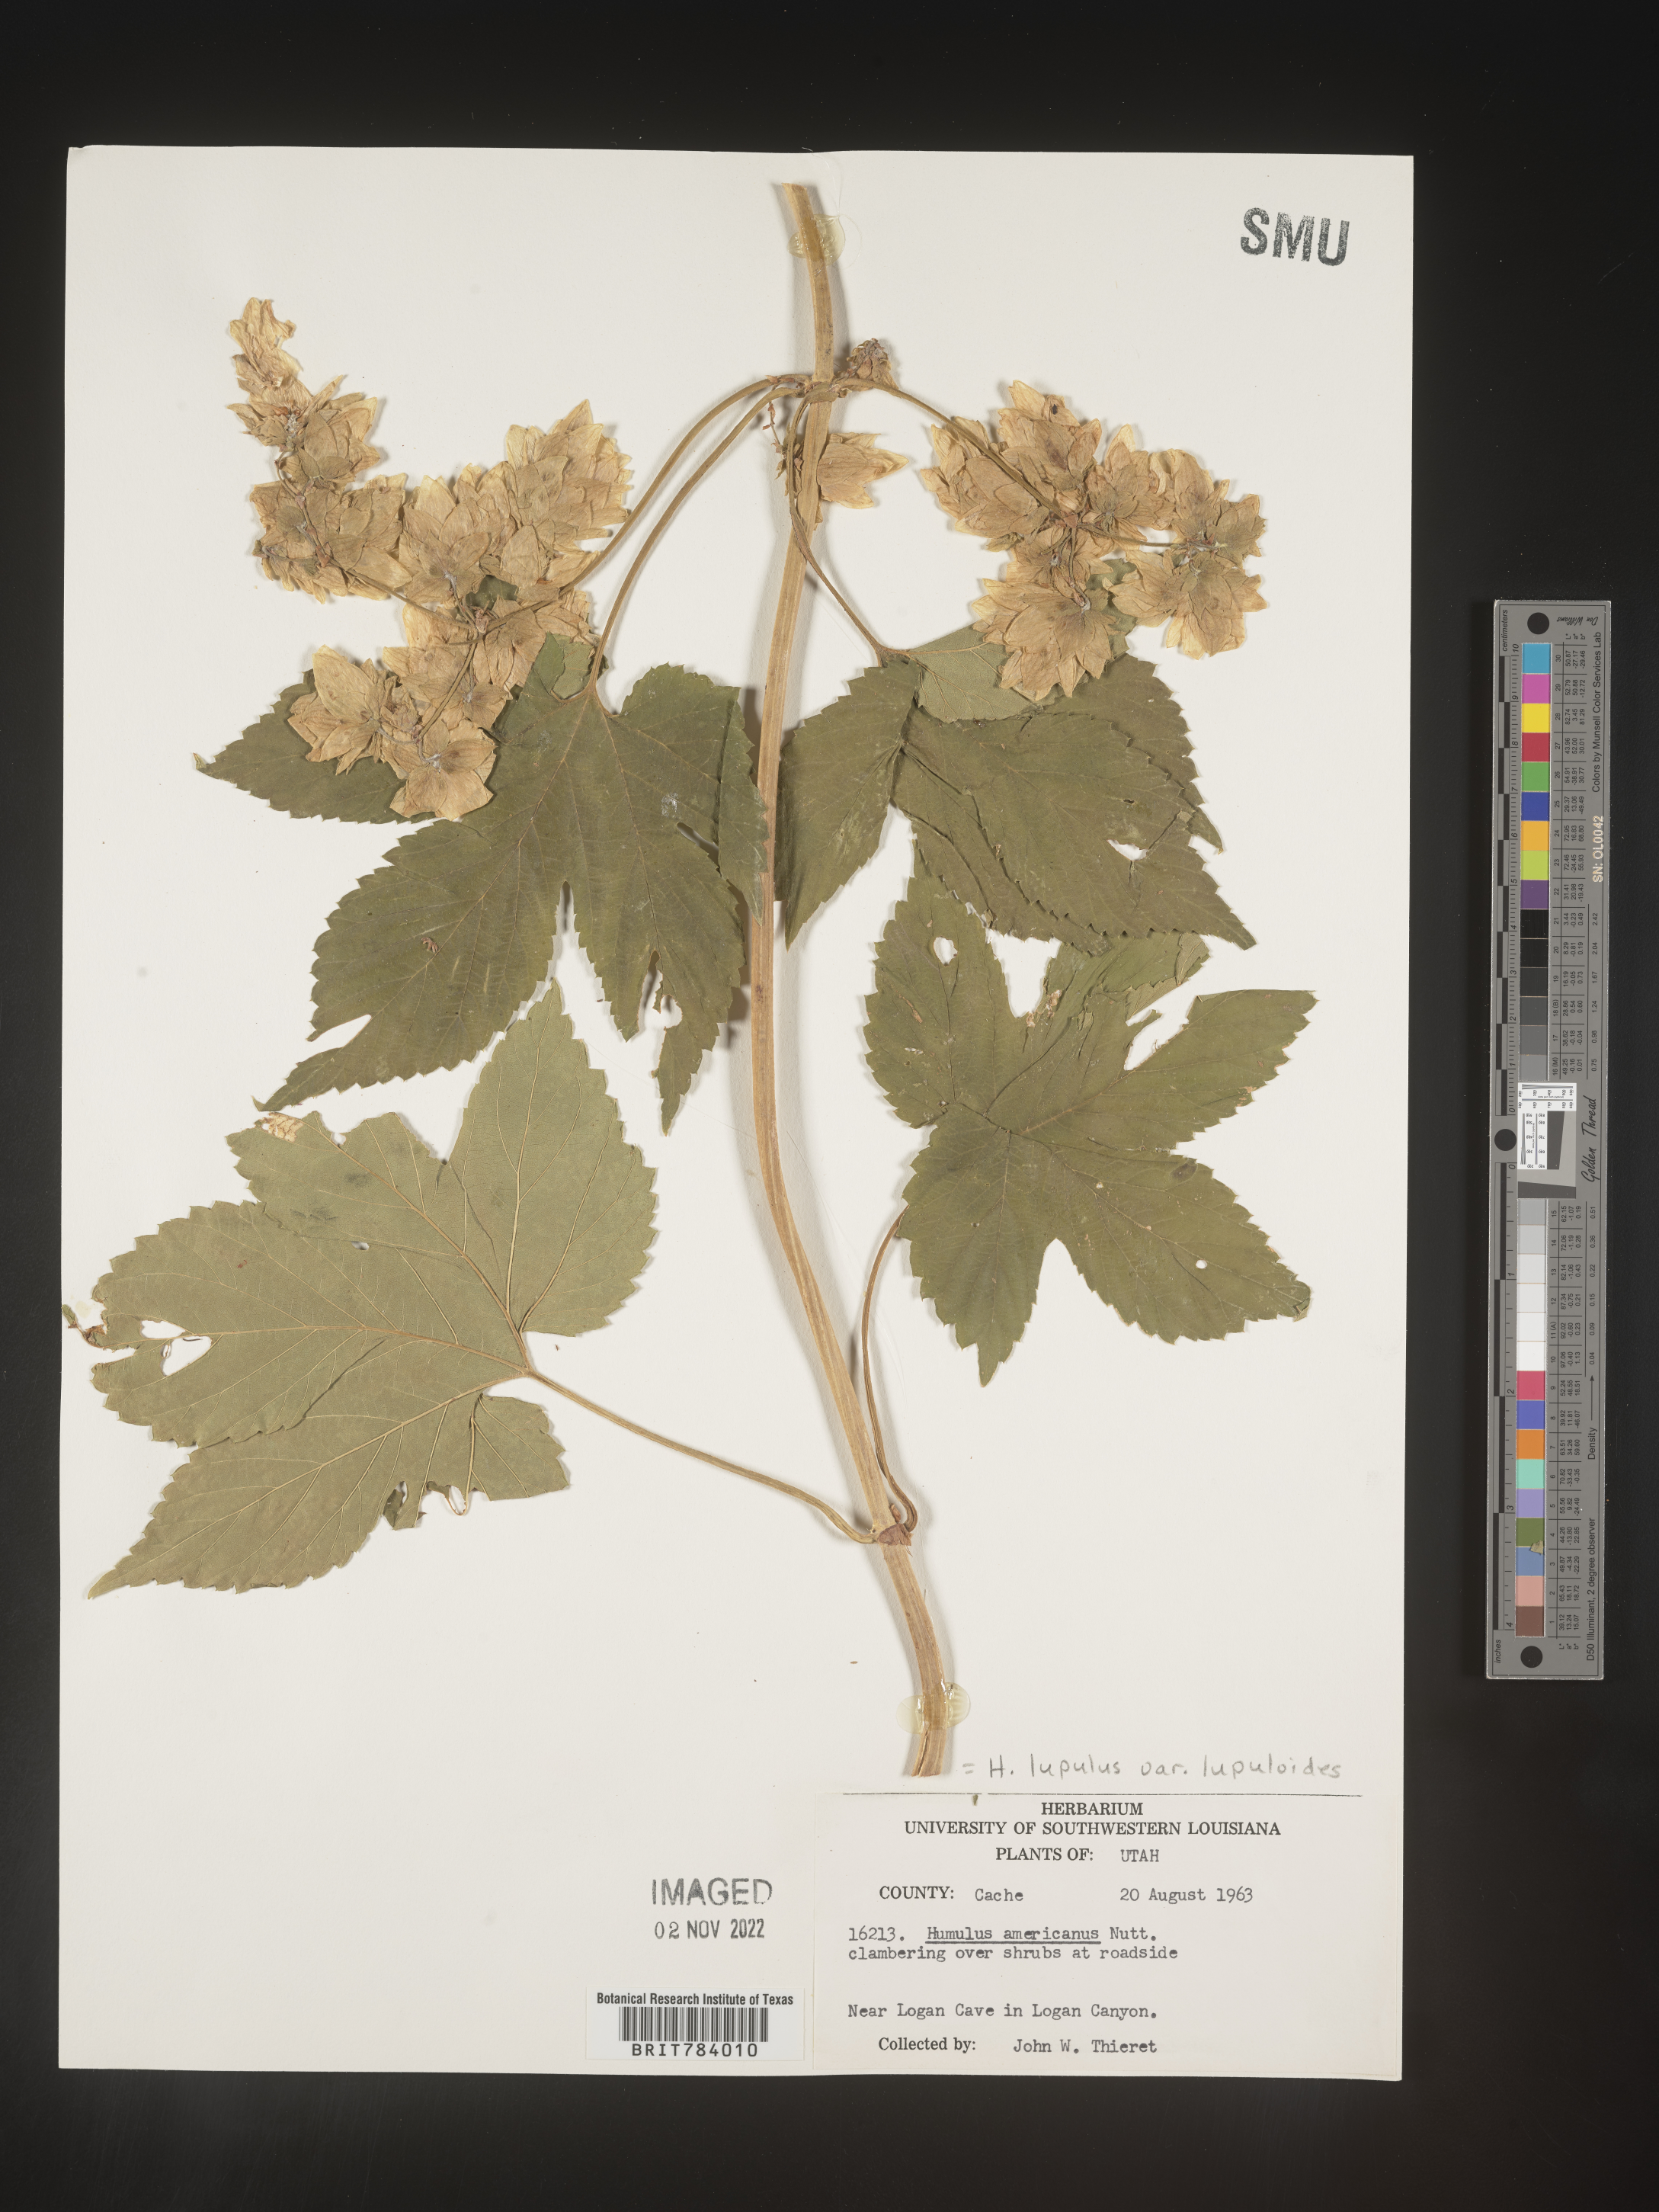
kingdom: Plantae
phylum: Tracheophyta
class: Magnoliopsida
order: Rosales
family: Cannabaceae
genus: Humulus
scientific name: Humulus americanus
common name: American hops
